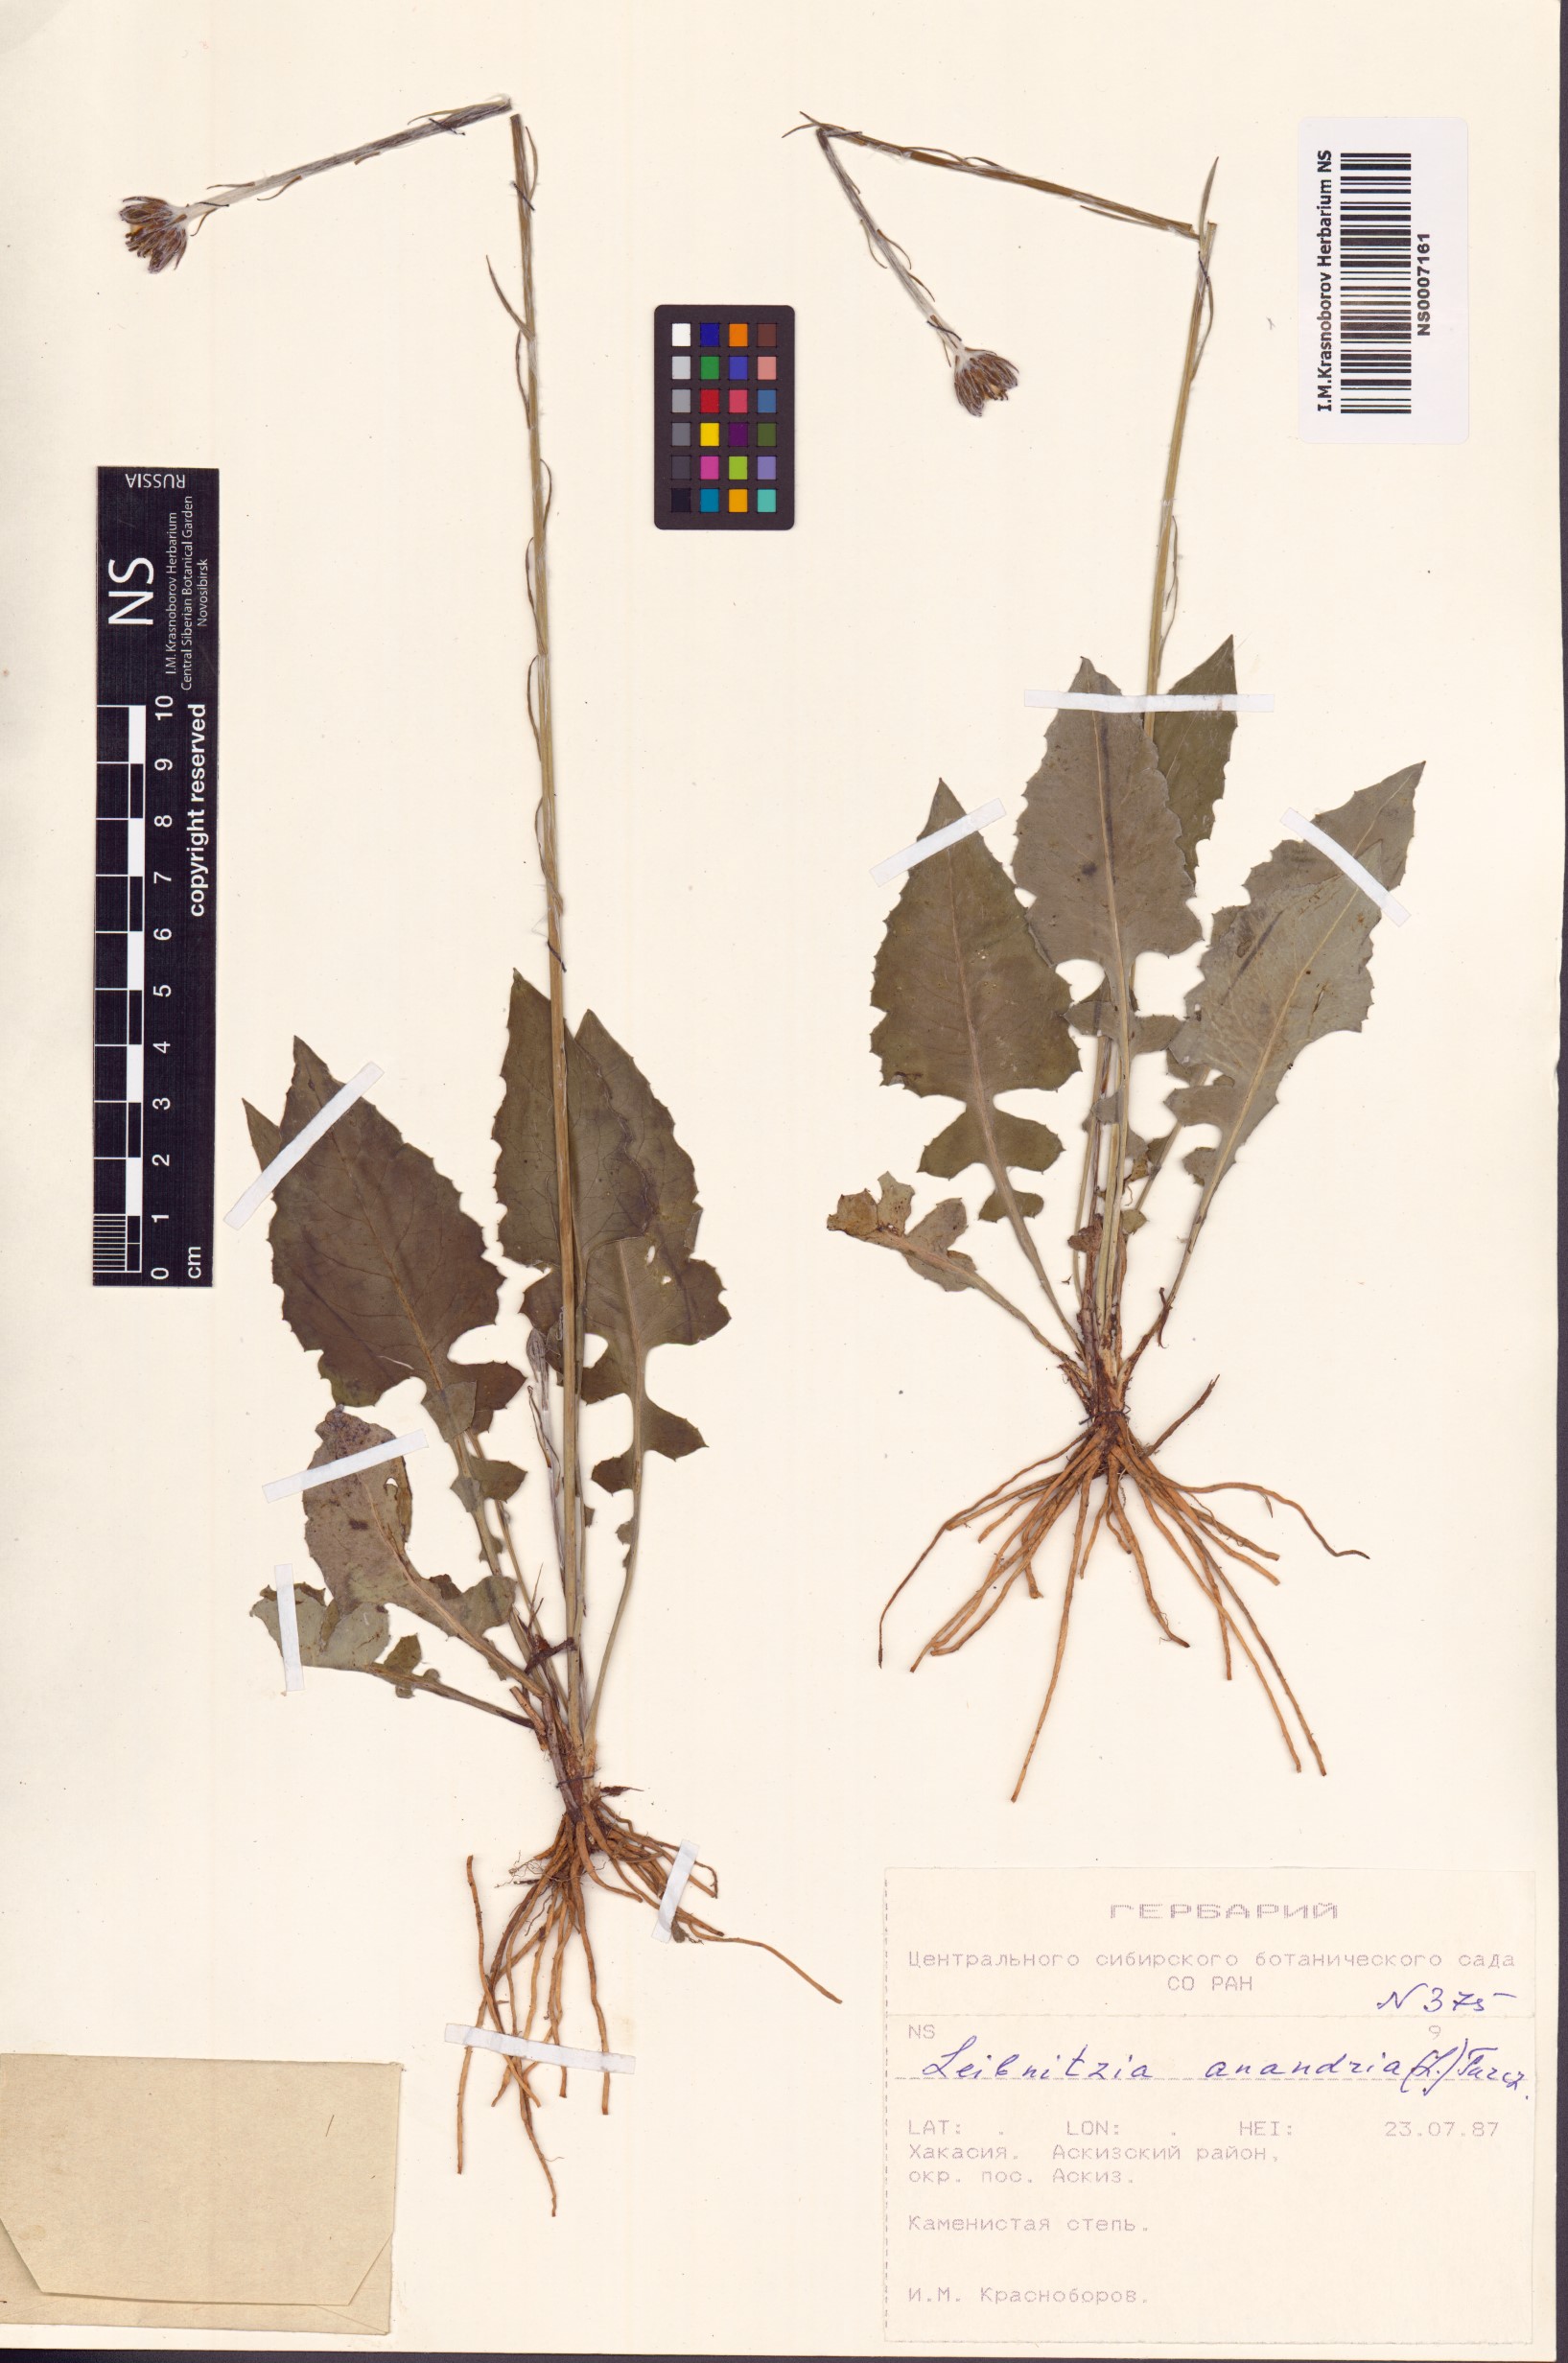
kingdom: Plantae
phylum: Tracheophyta
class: Magnoliopsida
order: Asterales
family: Asteraceae
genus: Leibnitzia
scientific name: Leibnitzia anandria
